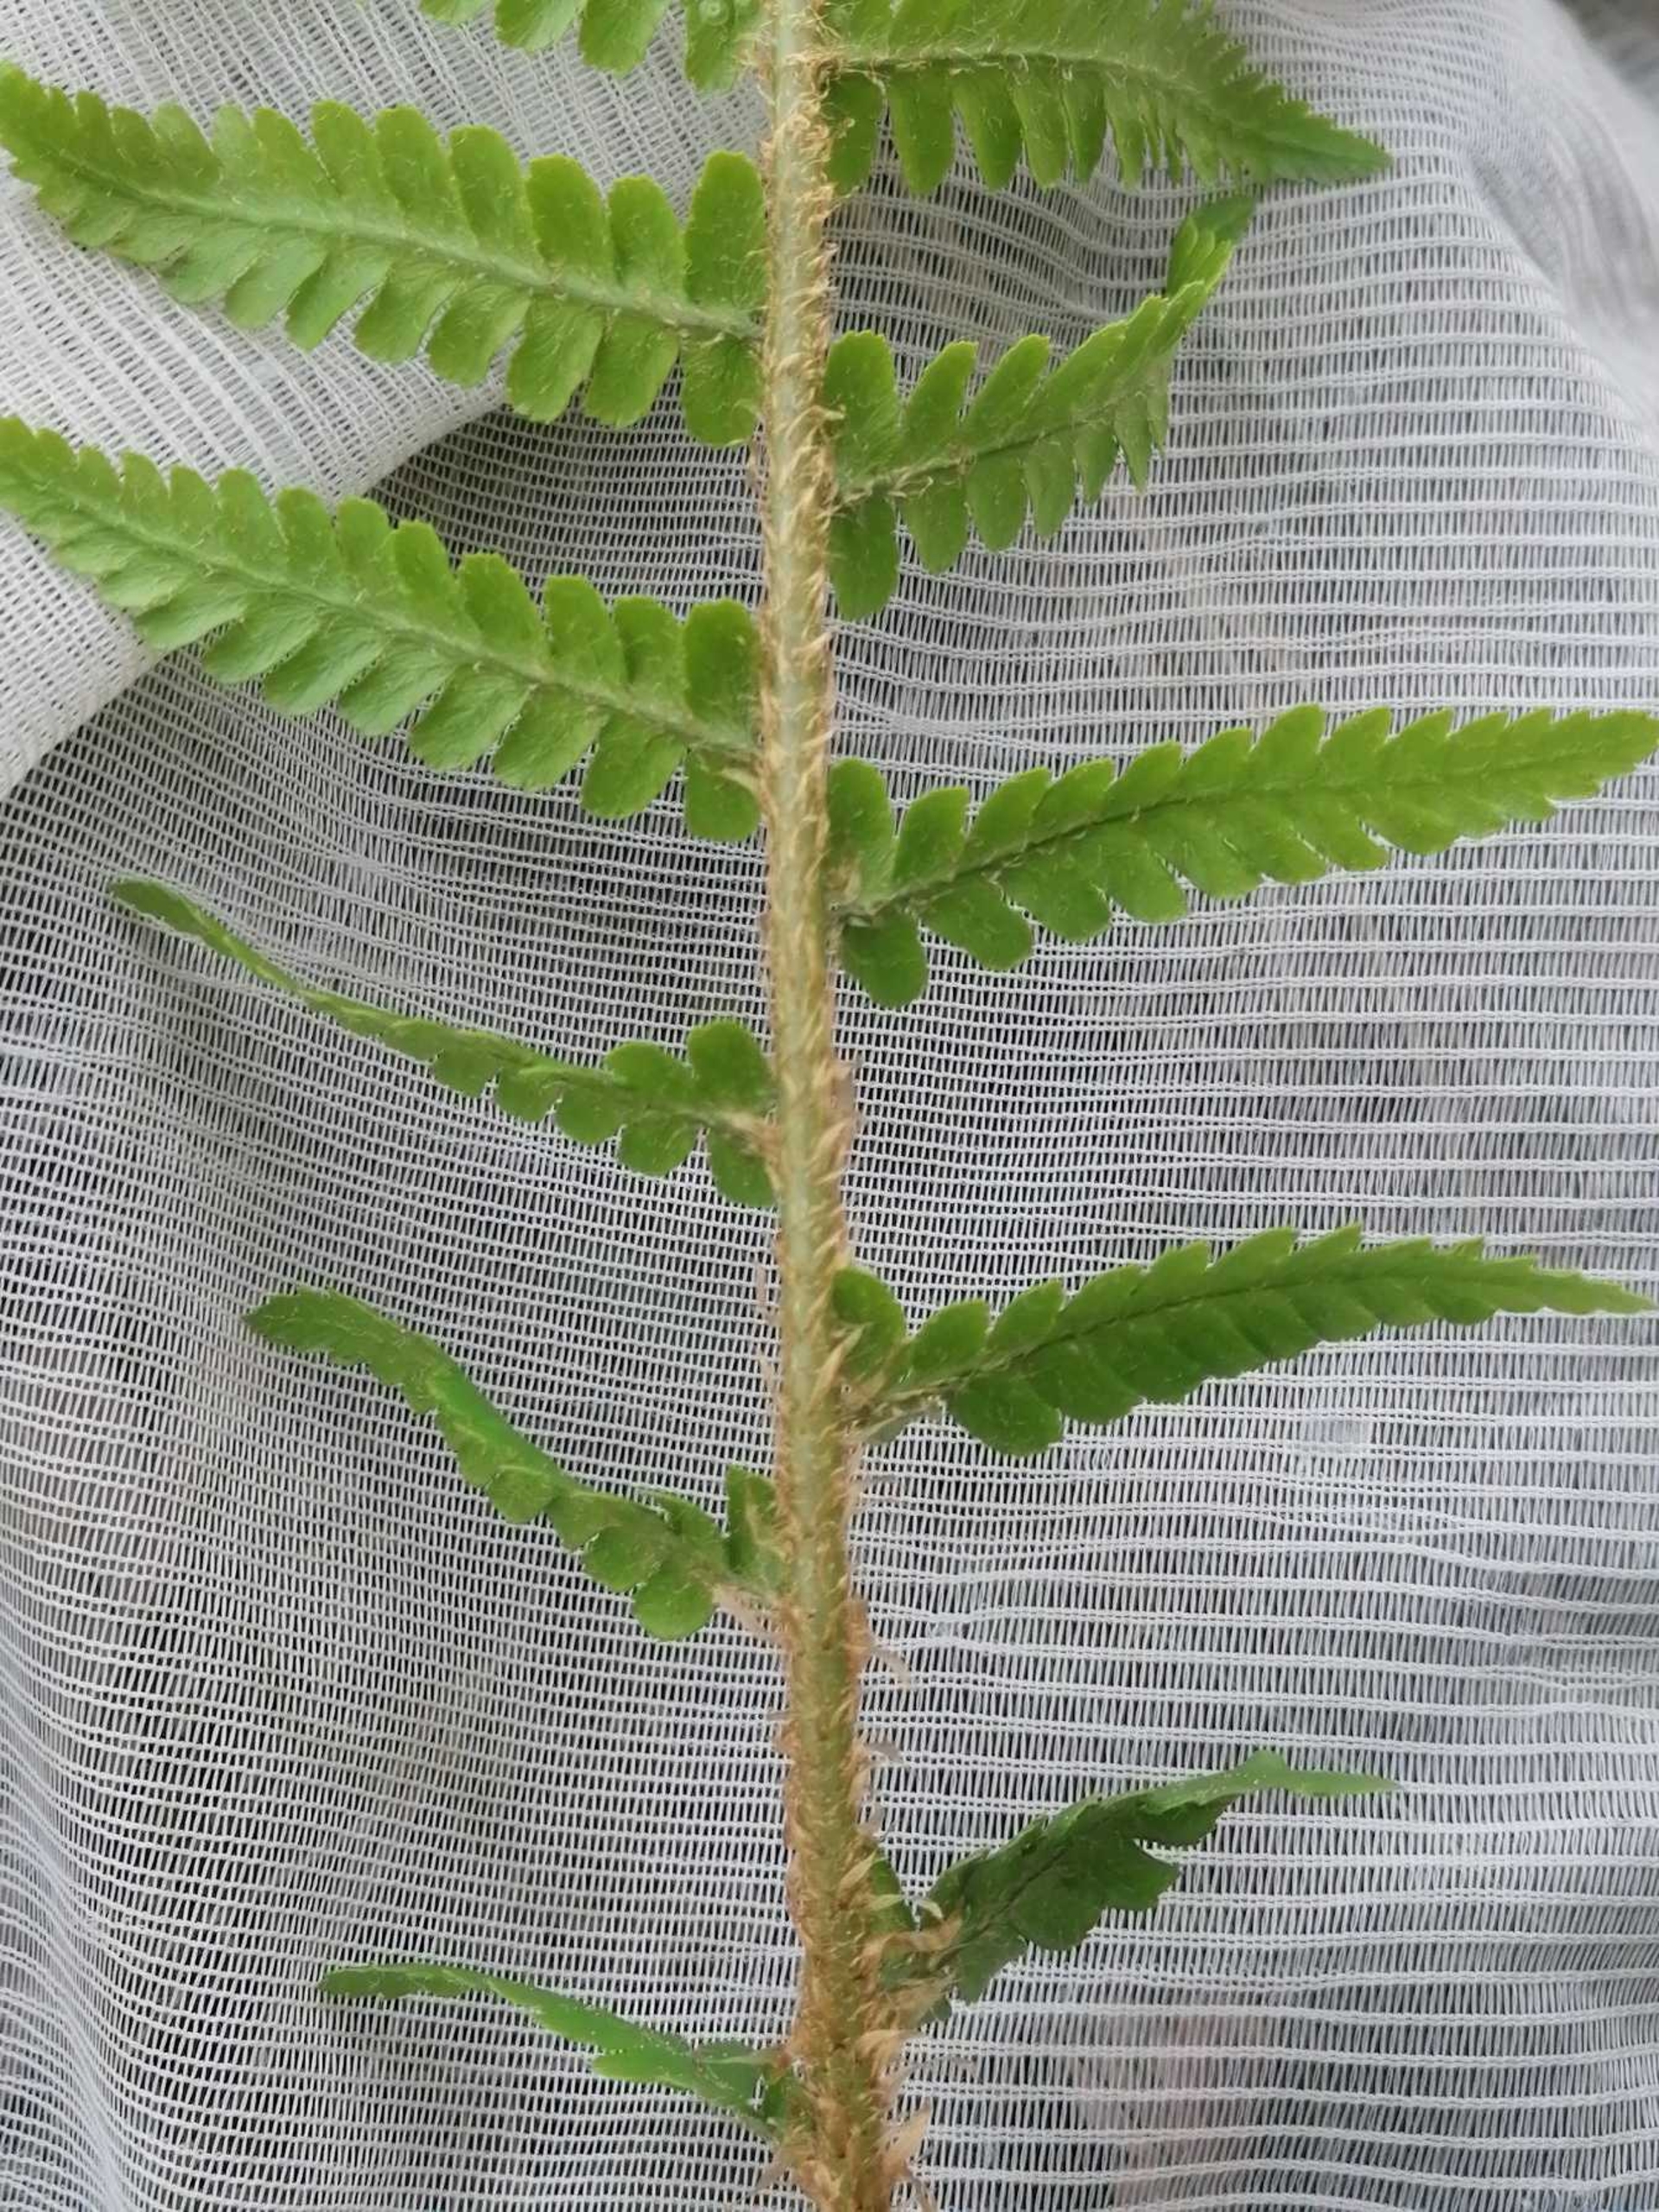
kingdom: Plantae
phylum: Tracheophyta
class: Polypodiopsida
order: Polypodiales
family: Dryopteridaceae
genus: Dryopteris
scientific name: Dryopteris filix-mas
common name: Almindelig mangeløv
